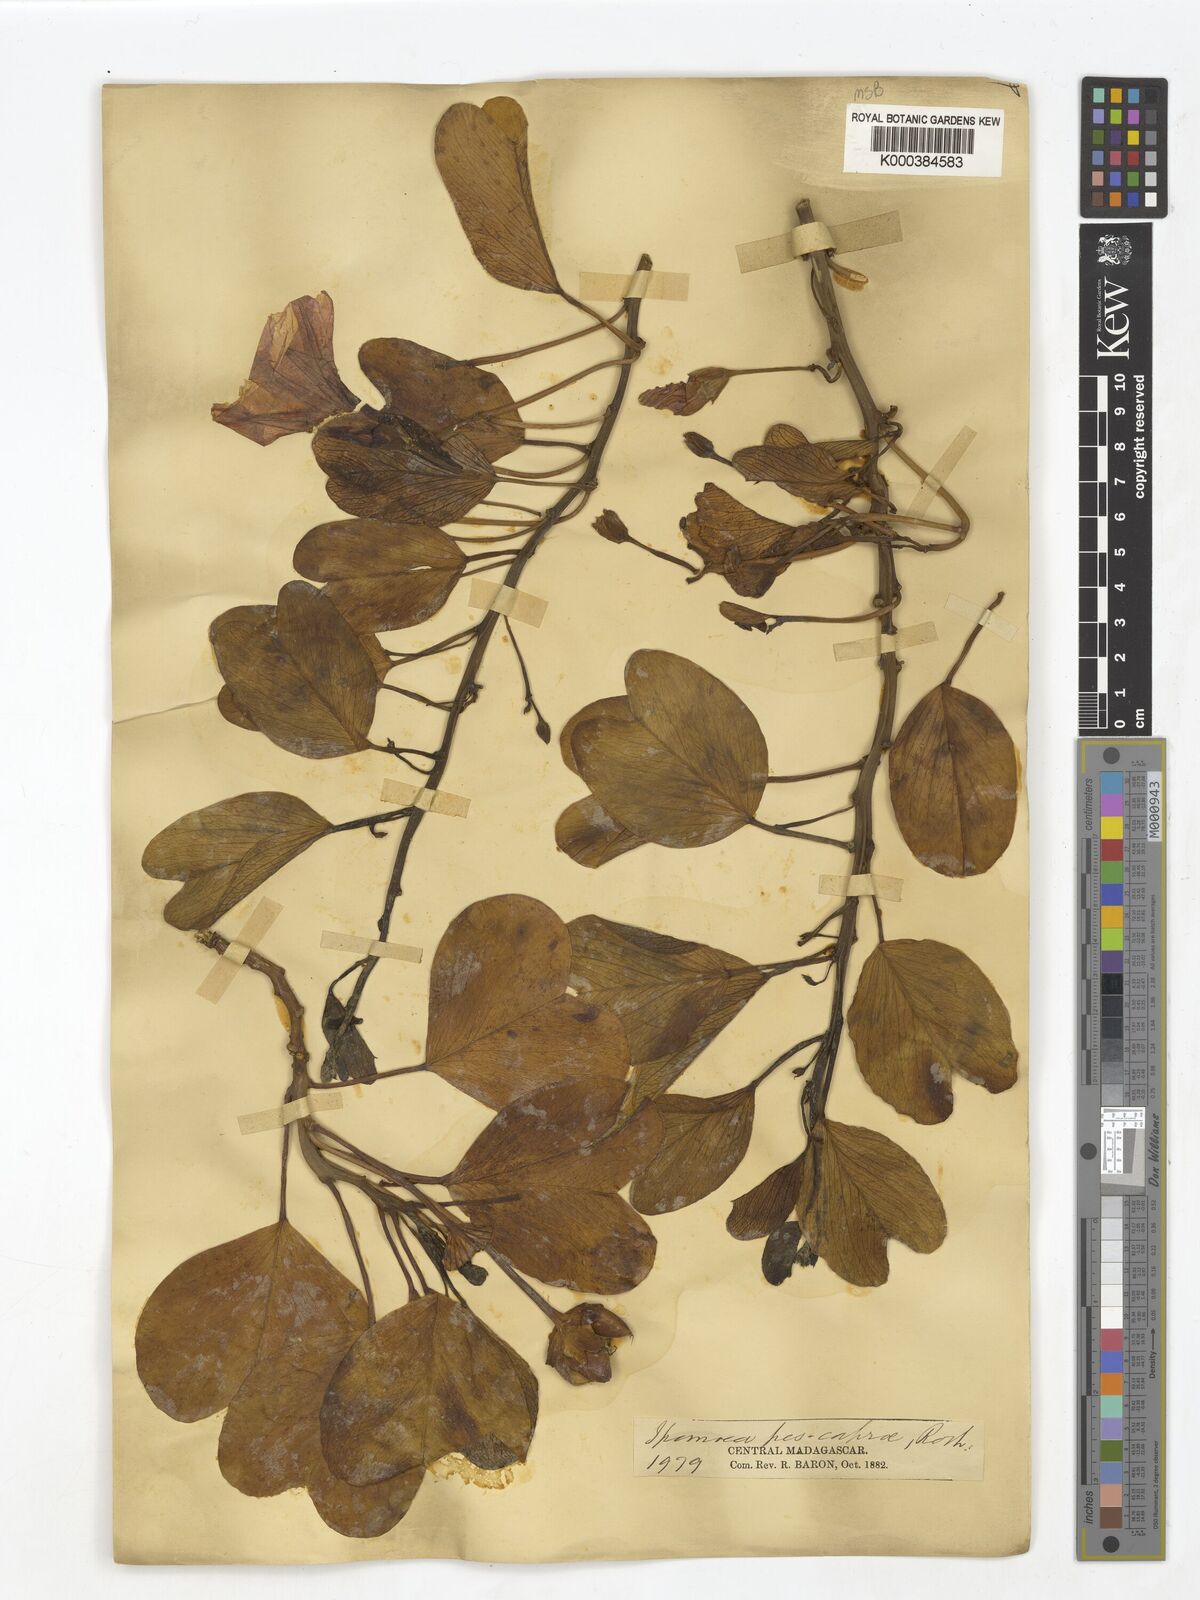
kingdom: Plantae
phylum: Tracheophyta
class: Magnoliopsida
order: Solanales
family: Convolvulaceae
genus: Ipomoea
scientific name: Ipomoea
